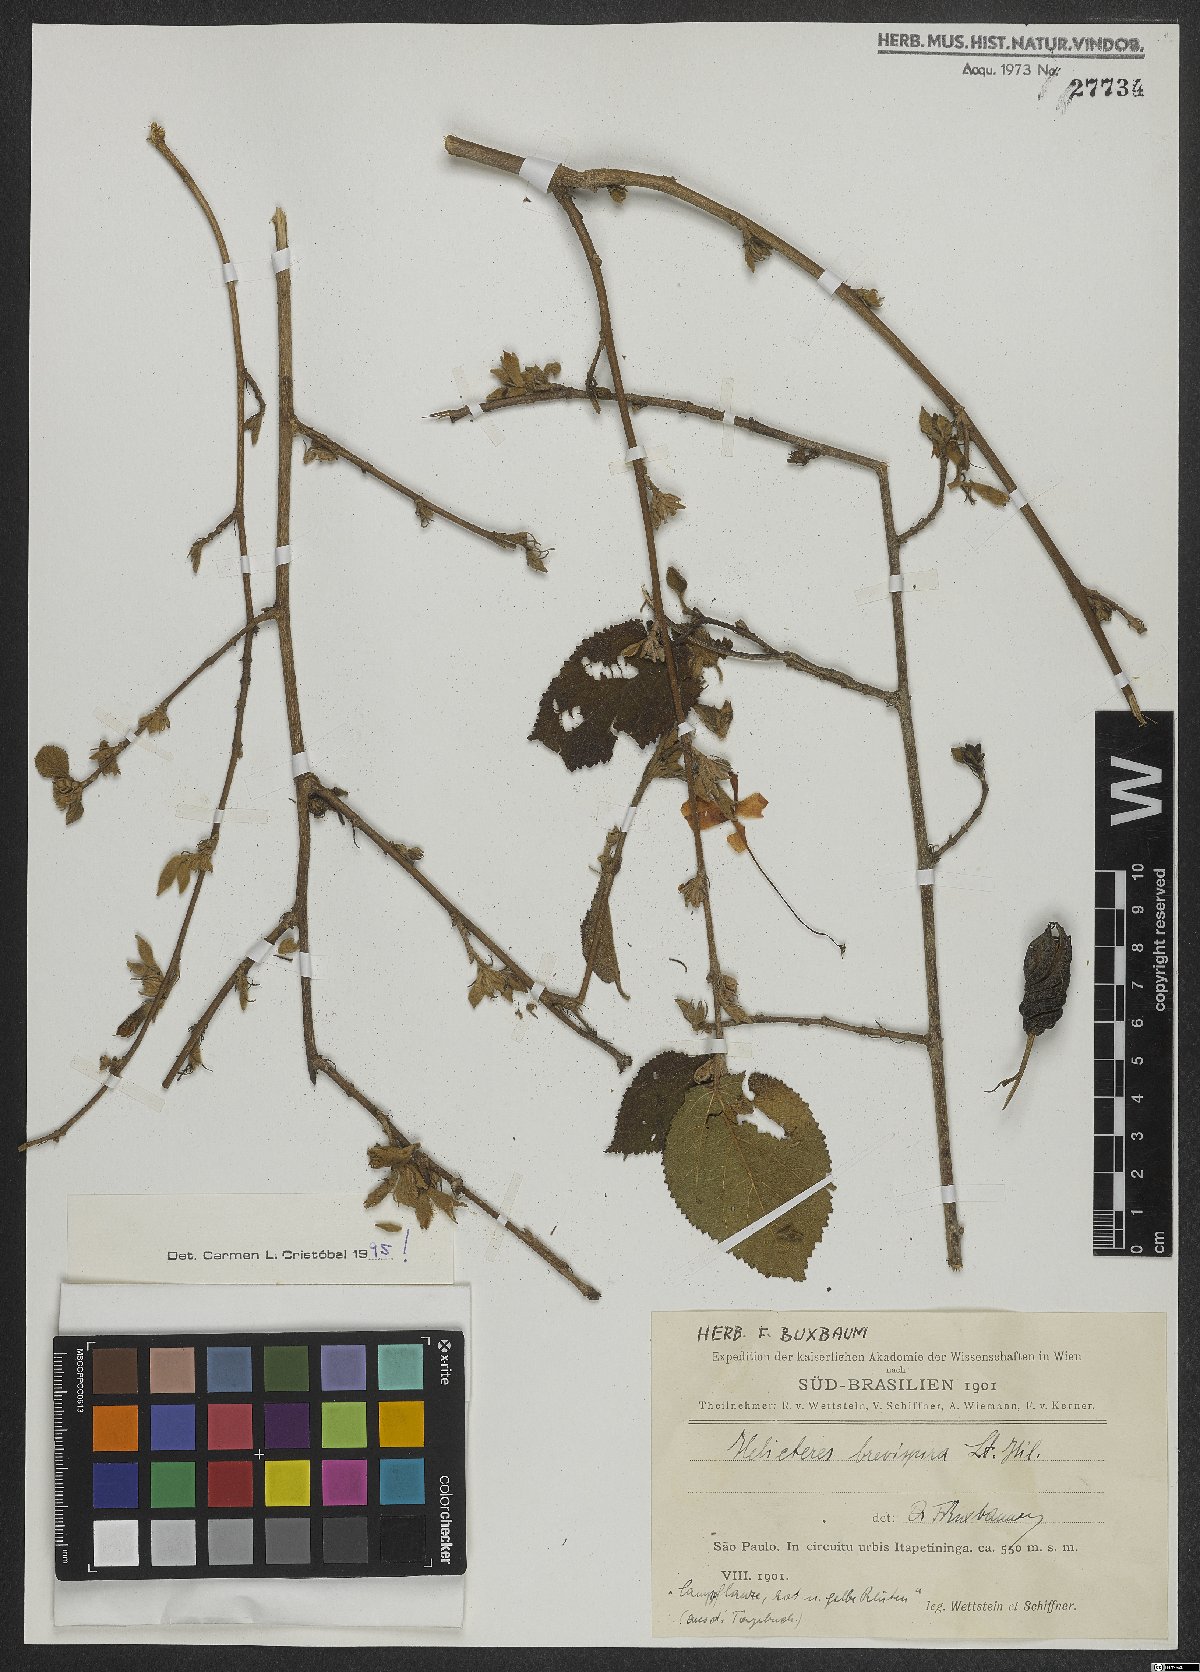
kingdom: Plantae
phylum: Tracheophyta
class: Magnoliopsida
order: Malvales
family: Malvaceae
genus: Helicteres
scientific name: Helicteres brevispira
